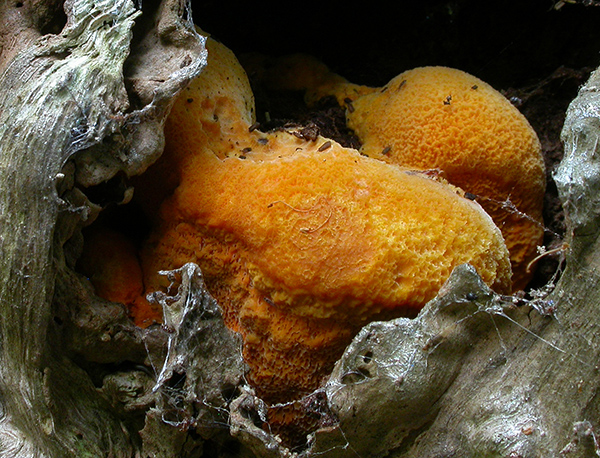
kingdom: Fungi
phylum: Basidiomycota
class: Agaricomycetes
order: Polyporales
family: Phanerochaetaceae
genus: Hapalopilus
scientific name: Hapalopilus croceus
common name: safrangul pragtporesvamp
